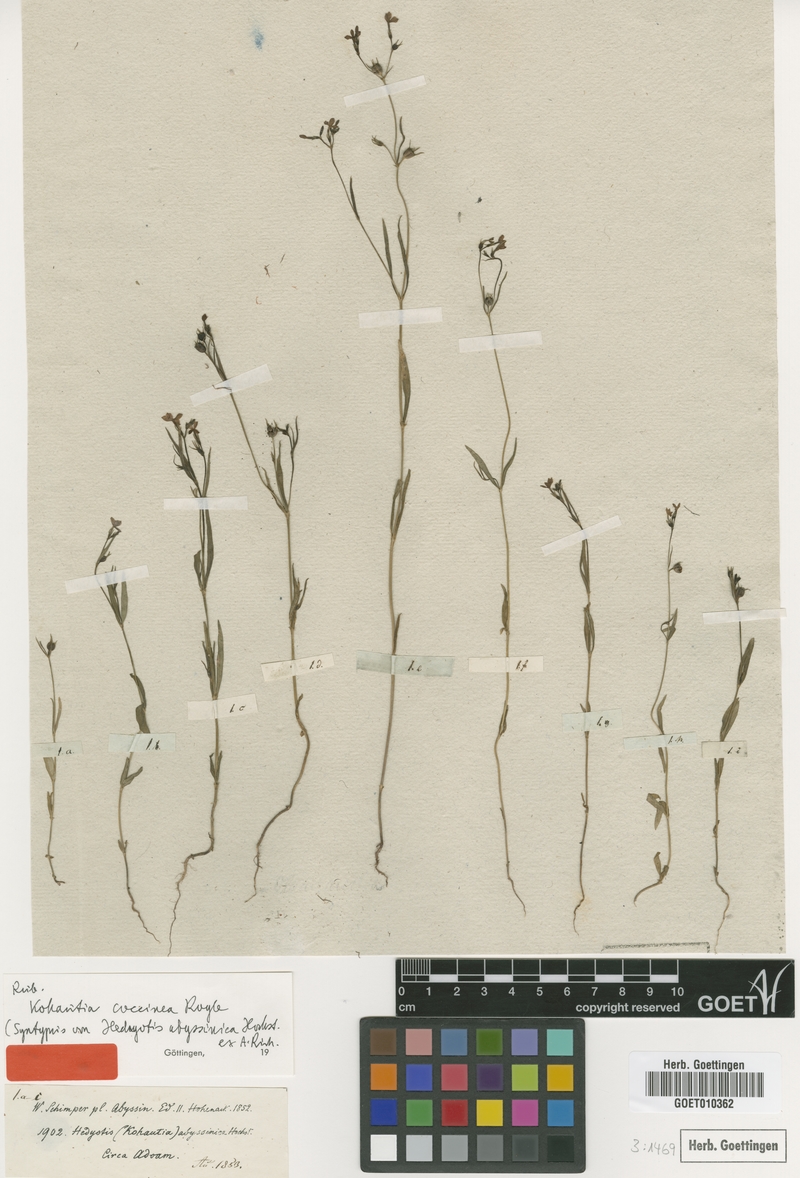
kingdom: Plantae
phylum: Tracheophyta
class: Magnoliopsida
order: Gentianales
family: Rubiaceae
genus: Kohautia
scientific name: Kohautia coccinea
